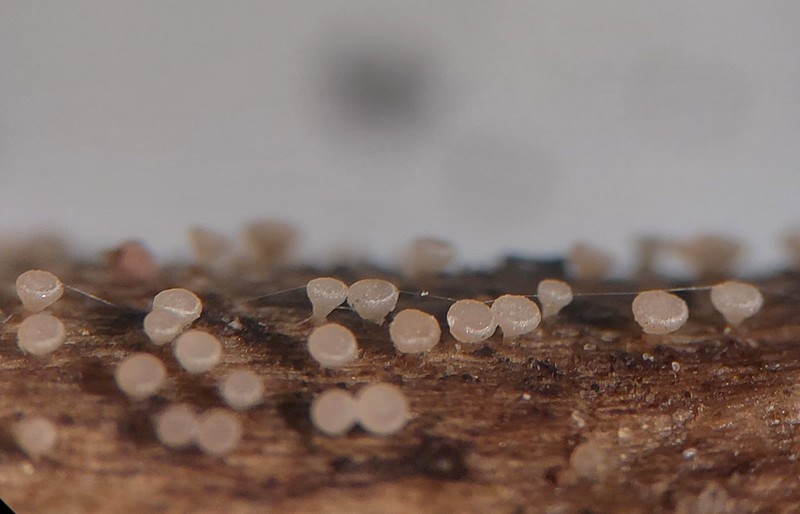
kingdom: Fungi
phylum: Ascomycota
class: Leotiomycetes
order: Helotiales
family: Pezizellaceae
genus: Allophylaria
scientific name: Allophylaria macrospora
